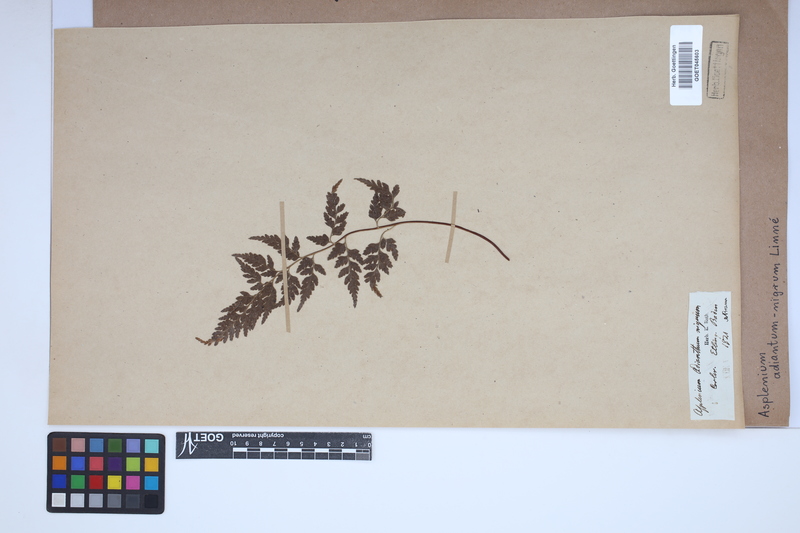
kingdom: Plantae
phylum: Tracheophyta
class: Polypodiopsida
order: Polypodiales
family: Aspleniaceae
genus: Asplenium
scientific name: Asplenium adiantum-nigrum
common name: Black spleenwort
